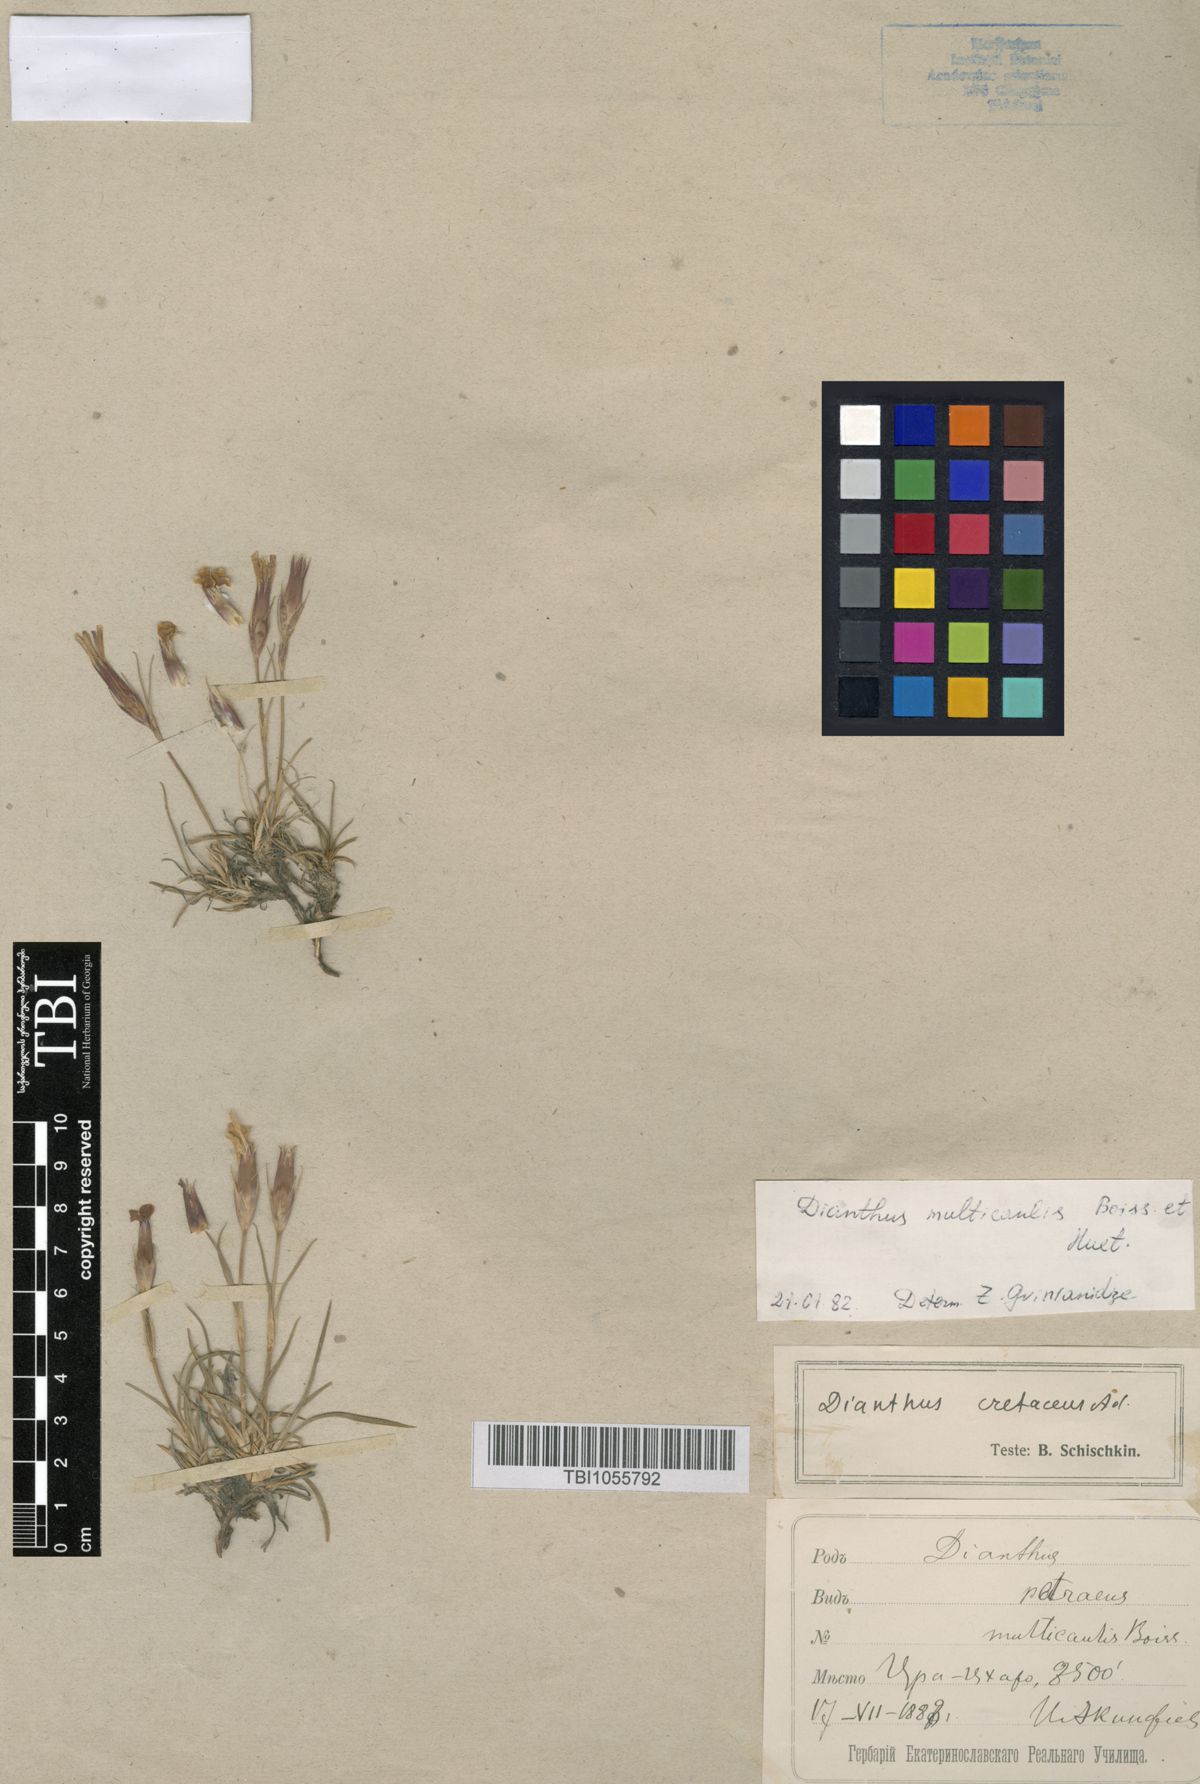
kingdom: Plantae
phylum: Tracheophyta
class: Magnoliopsida
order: Caryophyllales
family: Caryophyllaceae
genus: Dianthus
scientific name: Dianthus cretaceus
